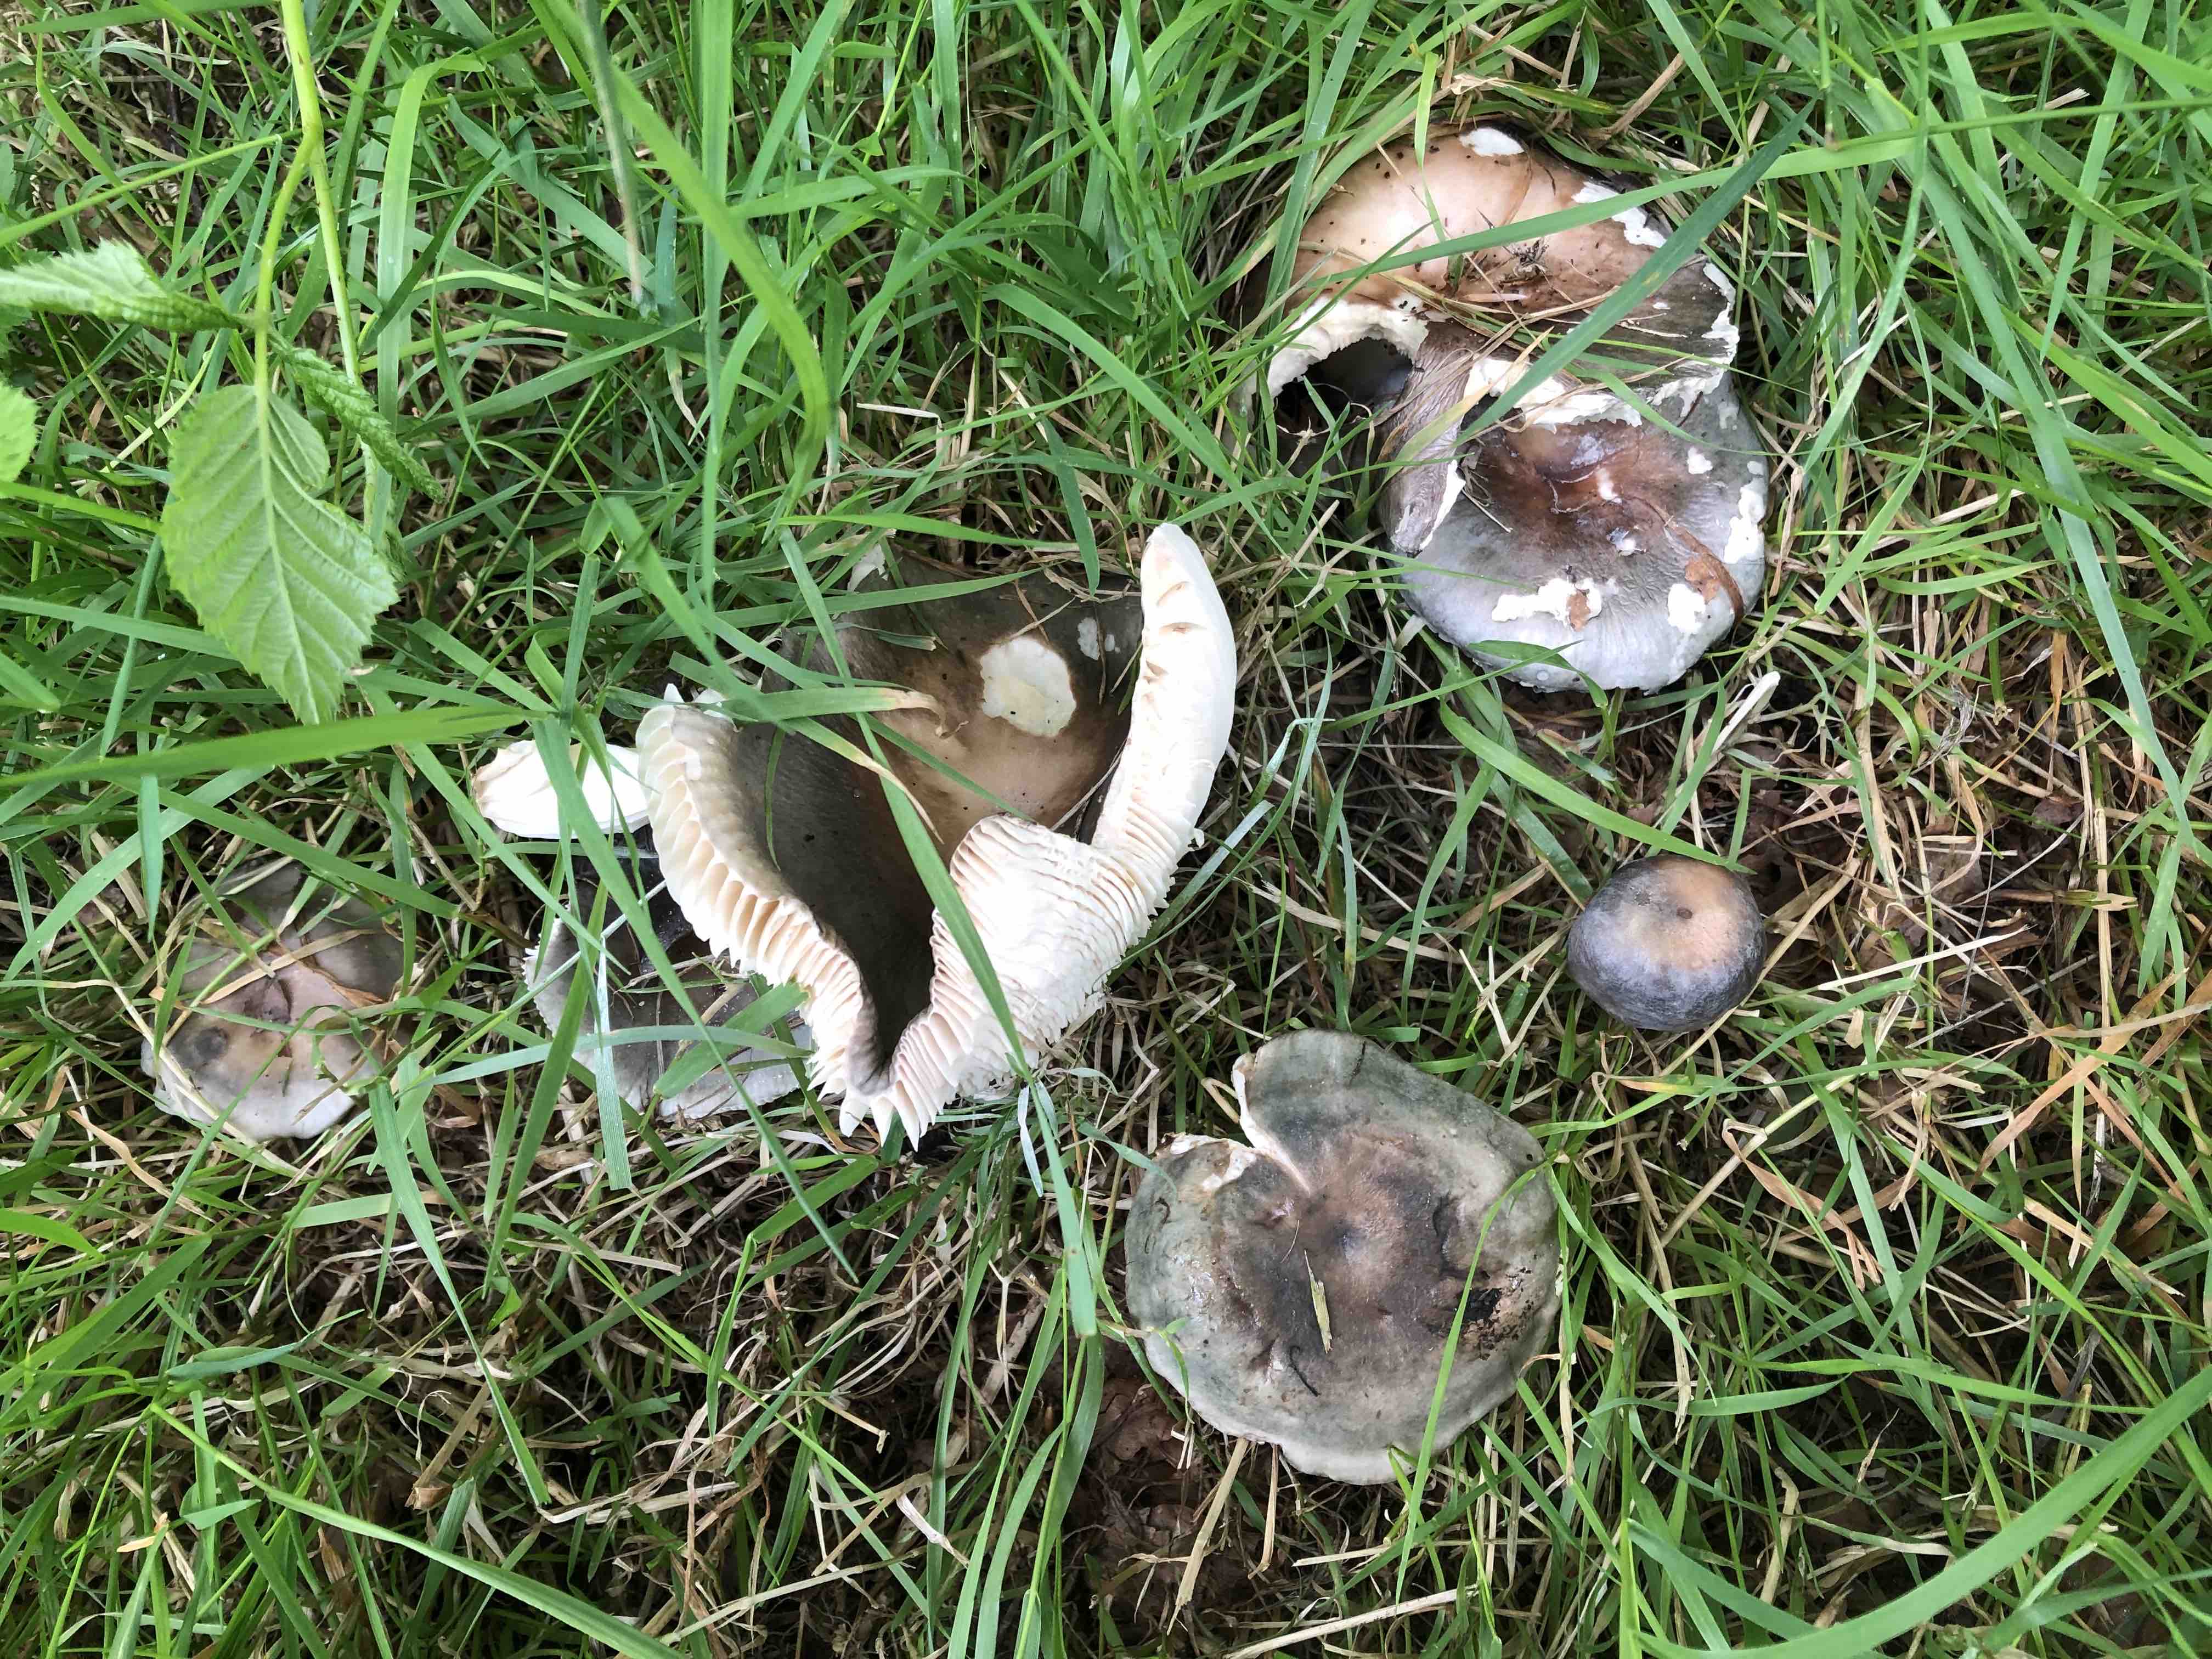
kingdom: Fungi
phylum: Basidiomycota
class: Agaricomycetes
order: Russulales
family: Russulaceae
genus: Russula
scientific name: Russula
